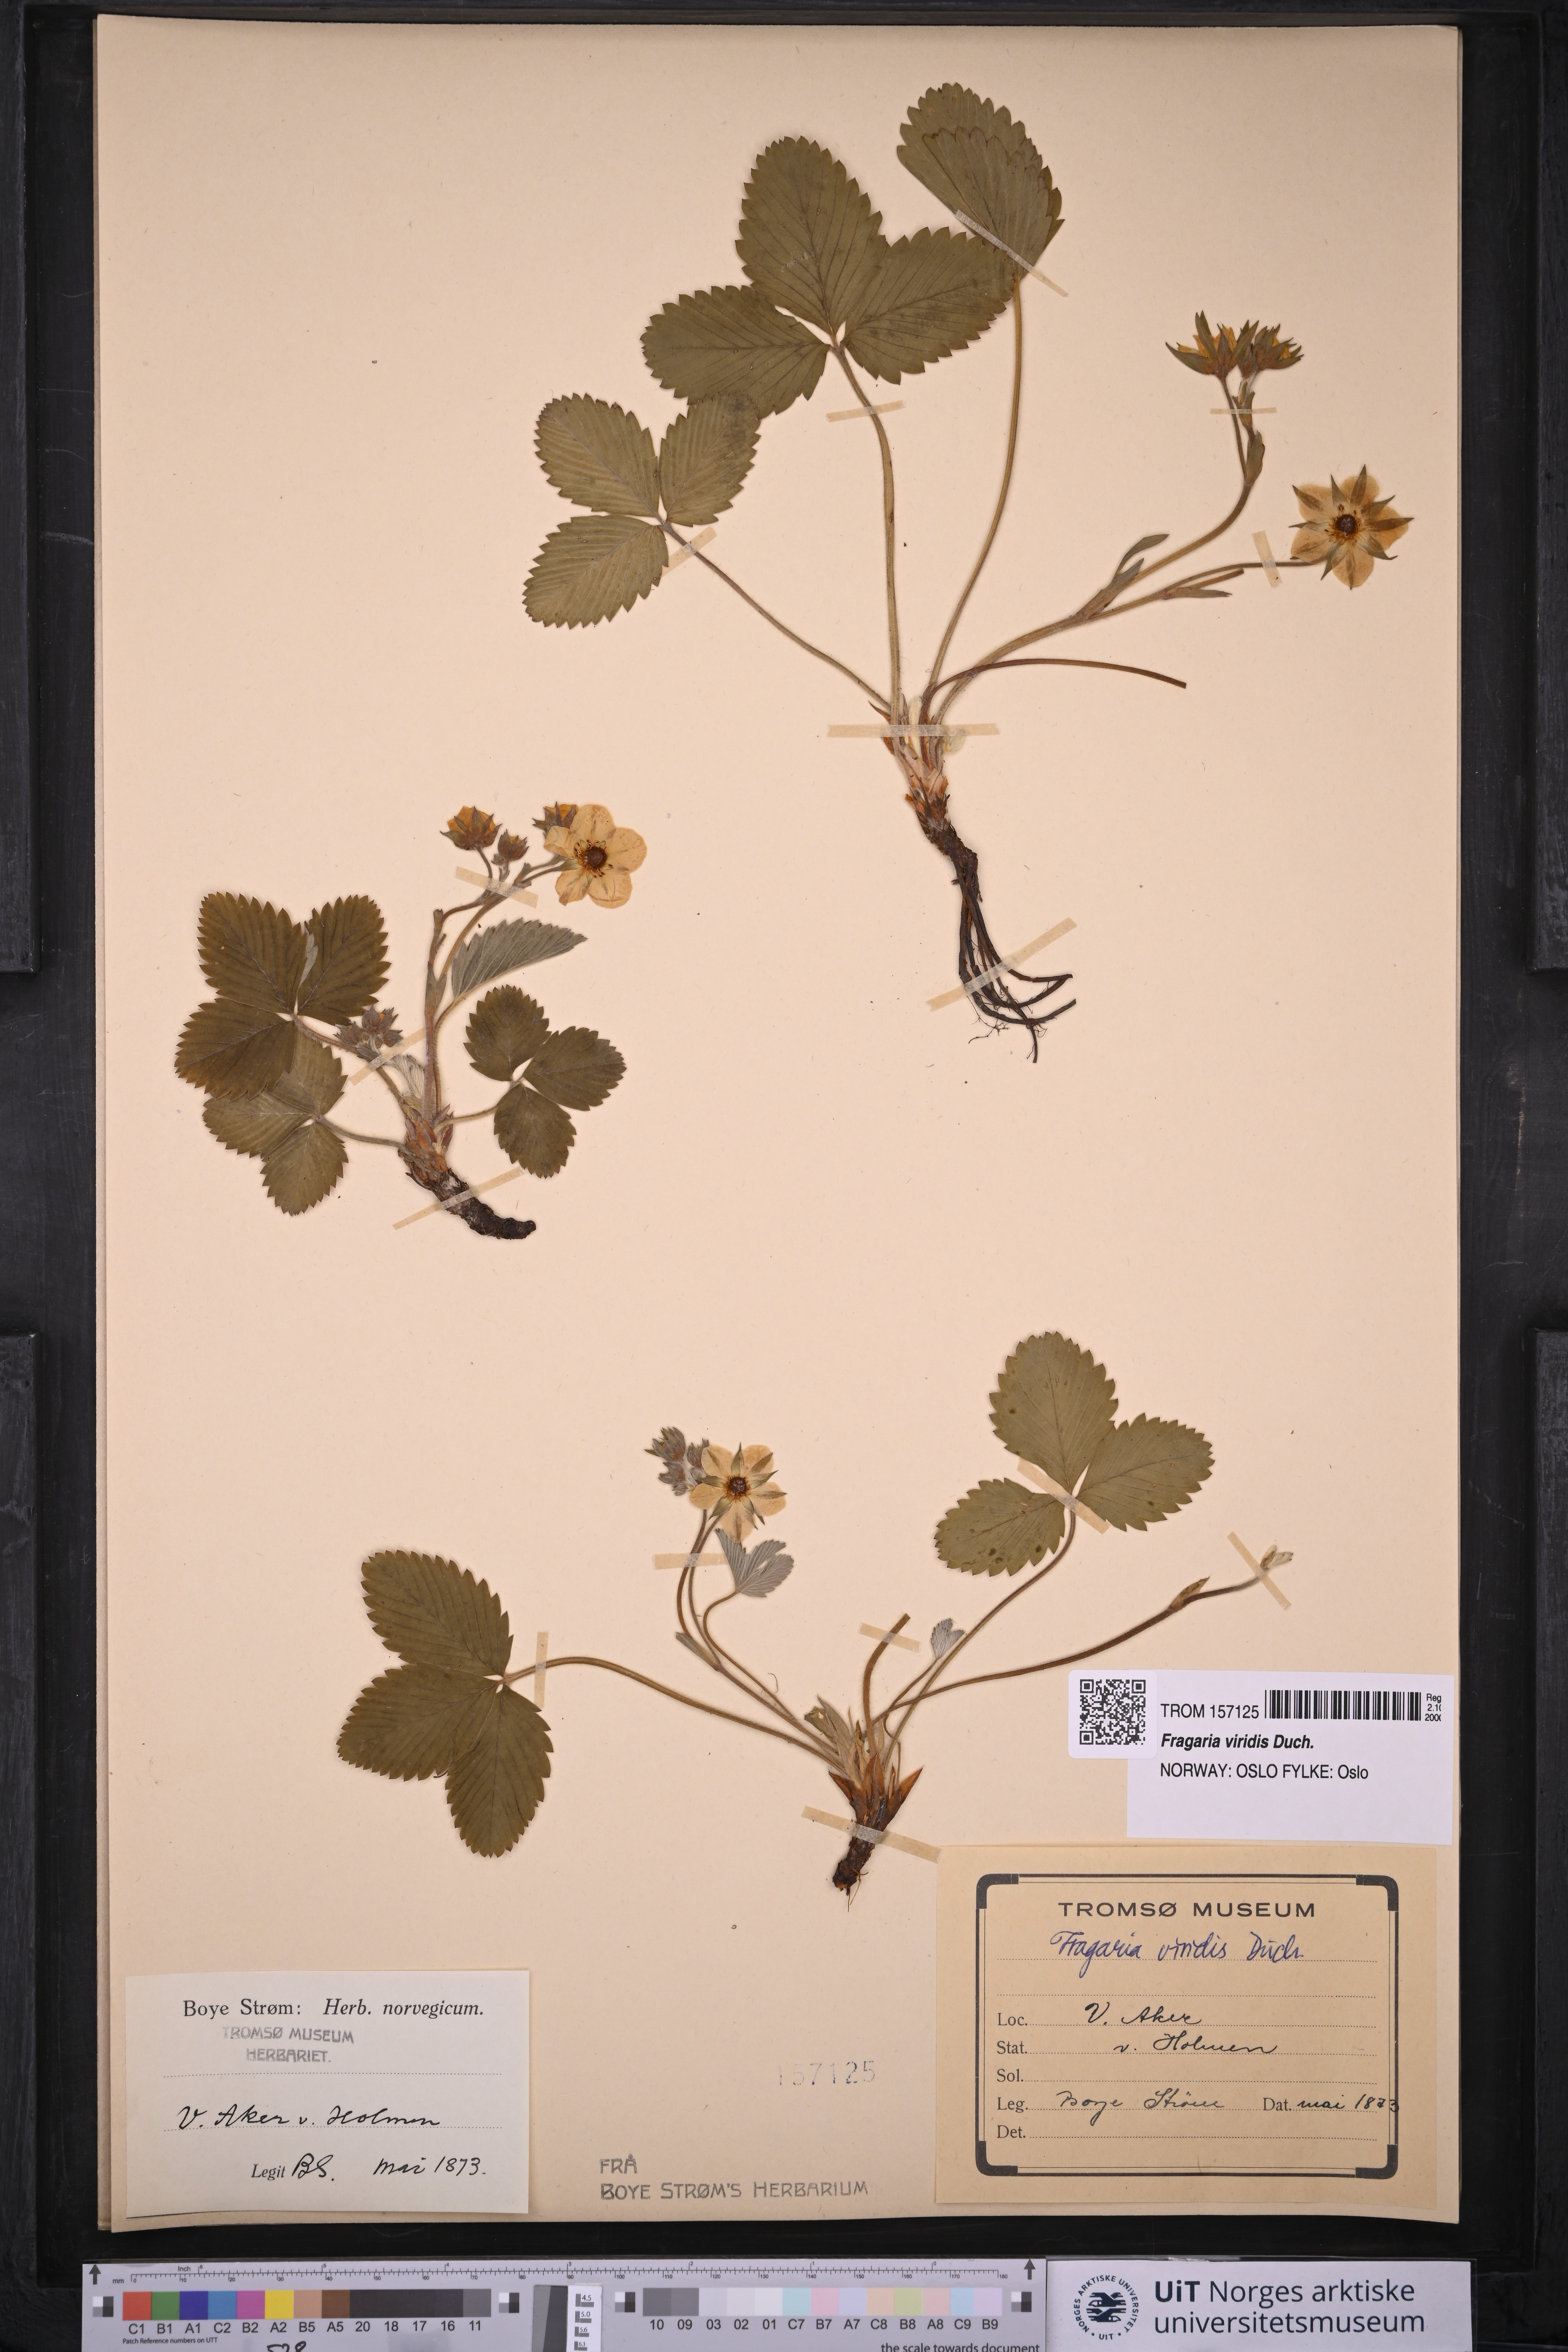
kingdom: Plantae
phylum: Tracheophyta
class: Magnoliopsida
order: Rosales
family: Rosaceae
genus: Fragaria
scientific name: Fragaria viridis
